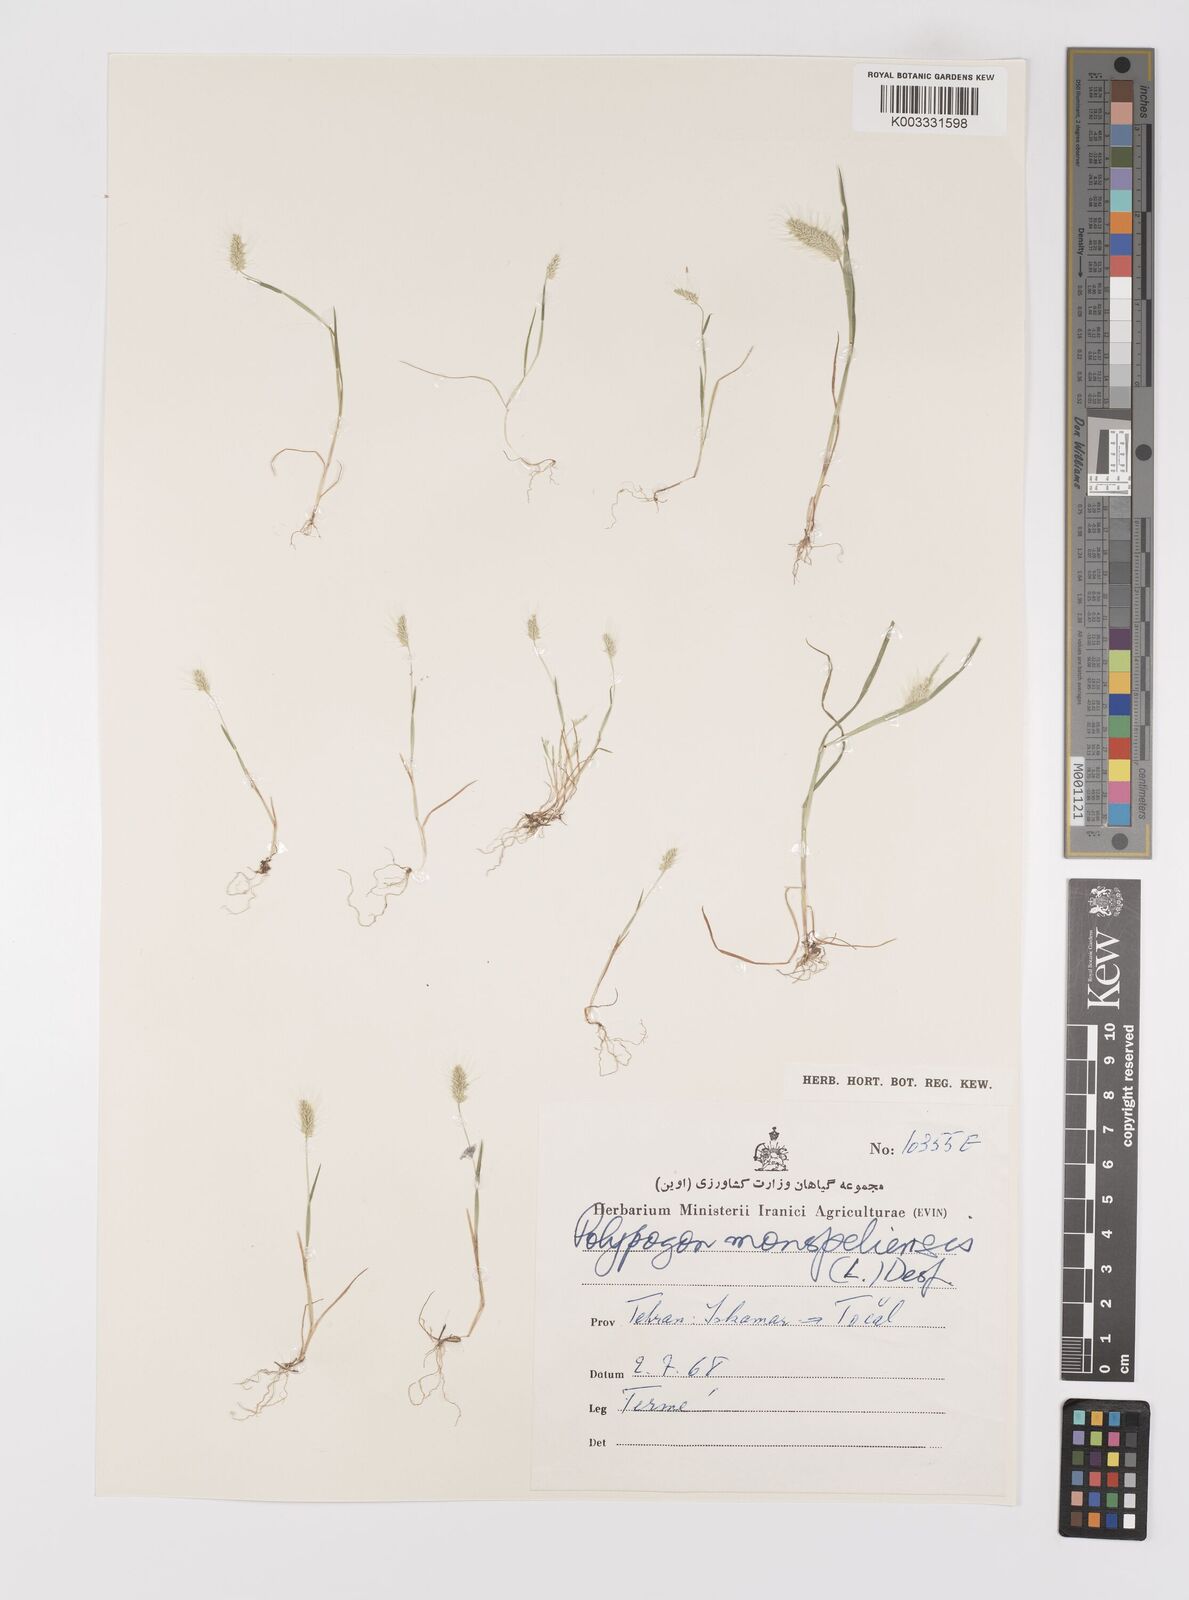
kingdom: Plantae
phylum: Tracheophyta
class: Liliopsida
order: Poales
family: Poaceae
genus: Polypogon
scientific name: Polypogon monspeliensis
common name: Annual rabbitsfoot grass
